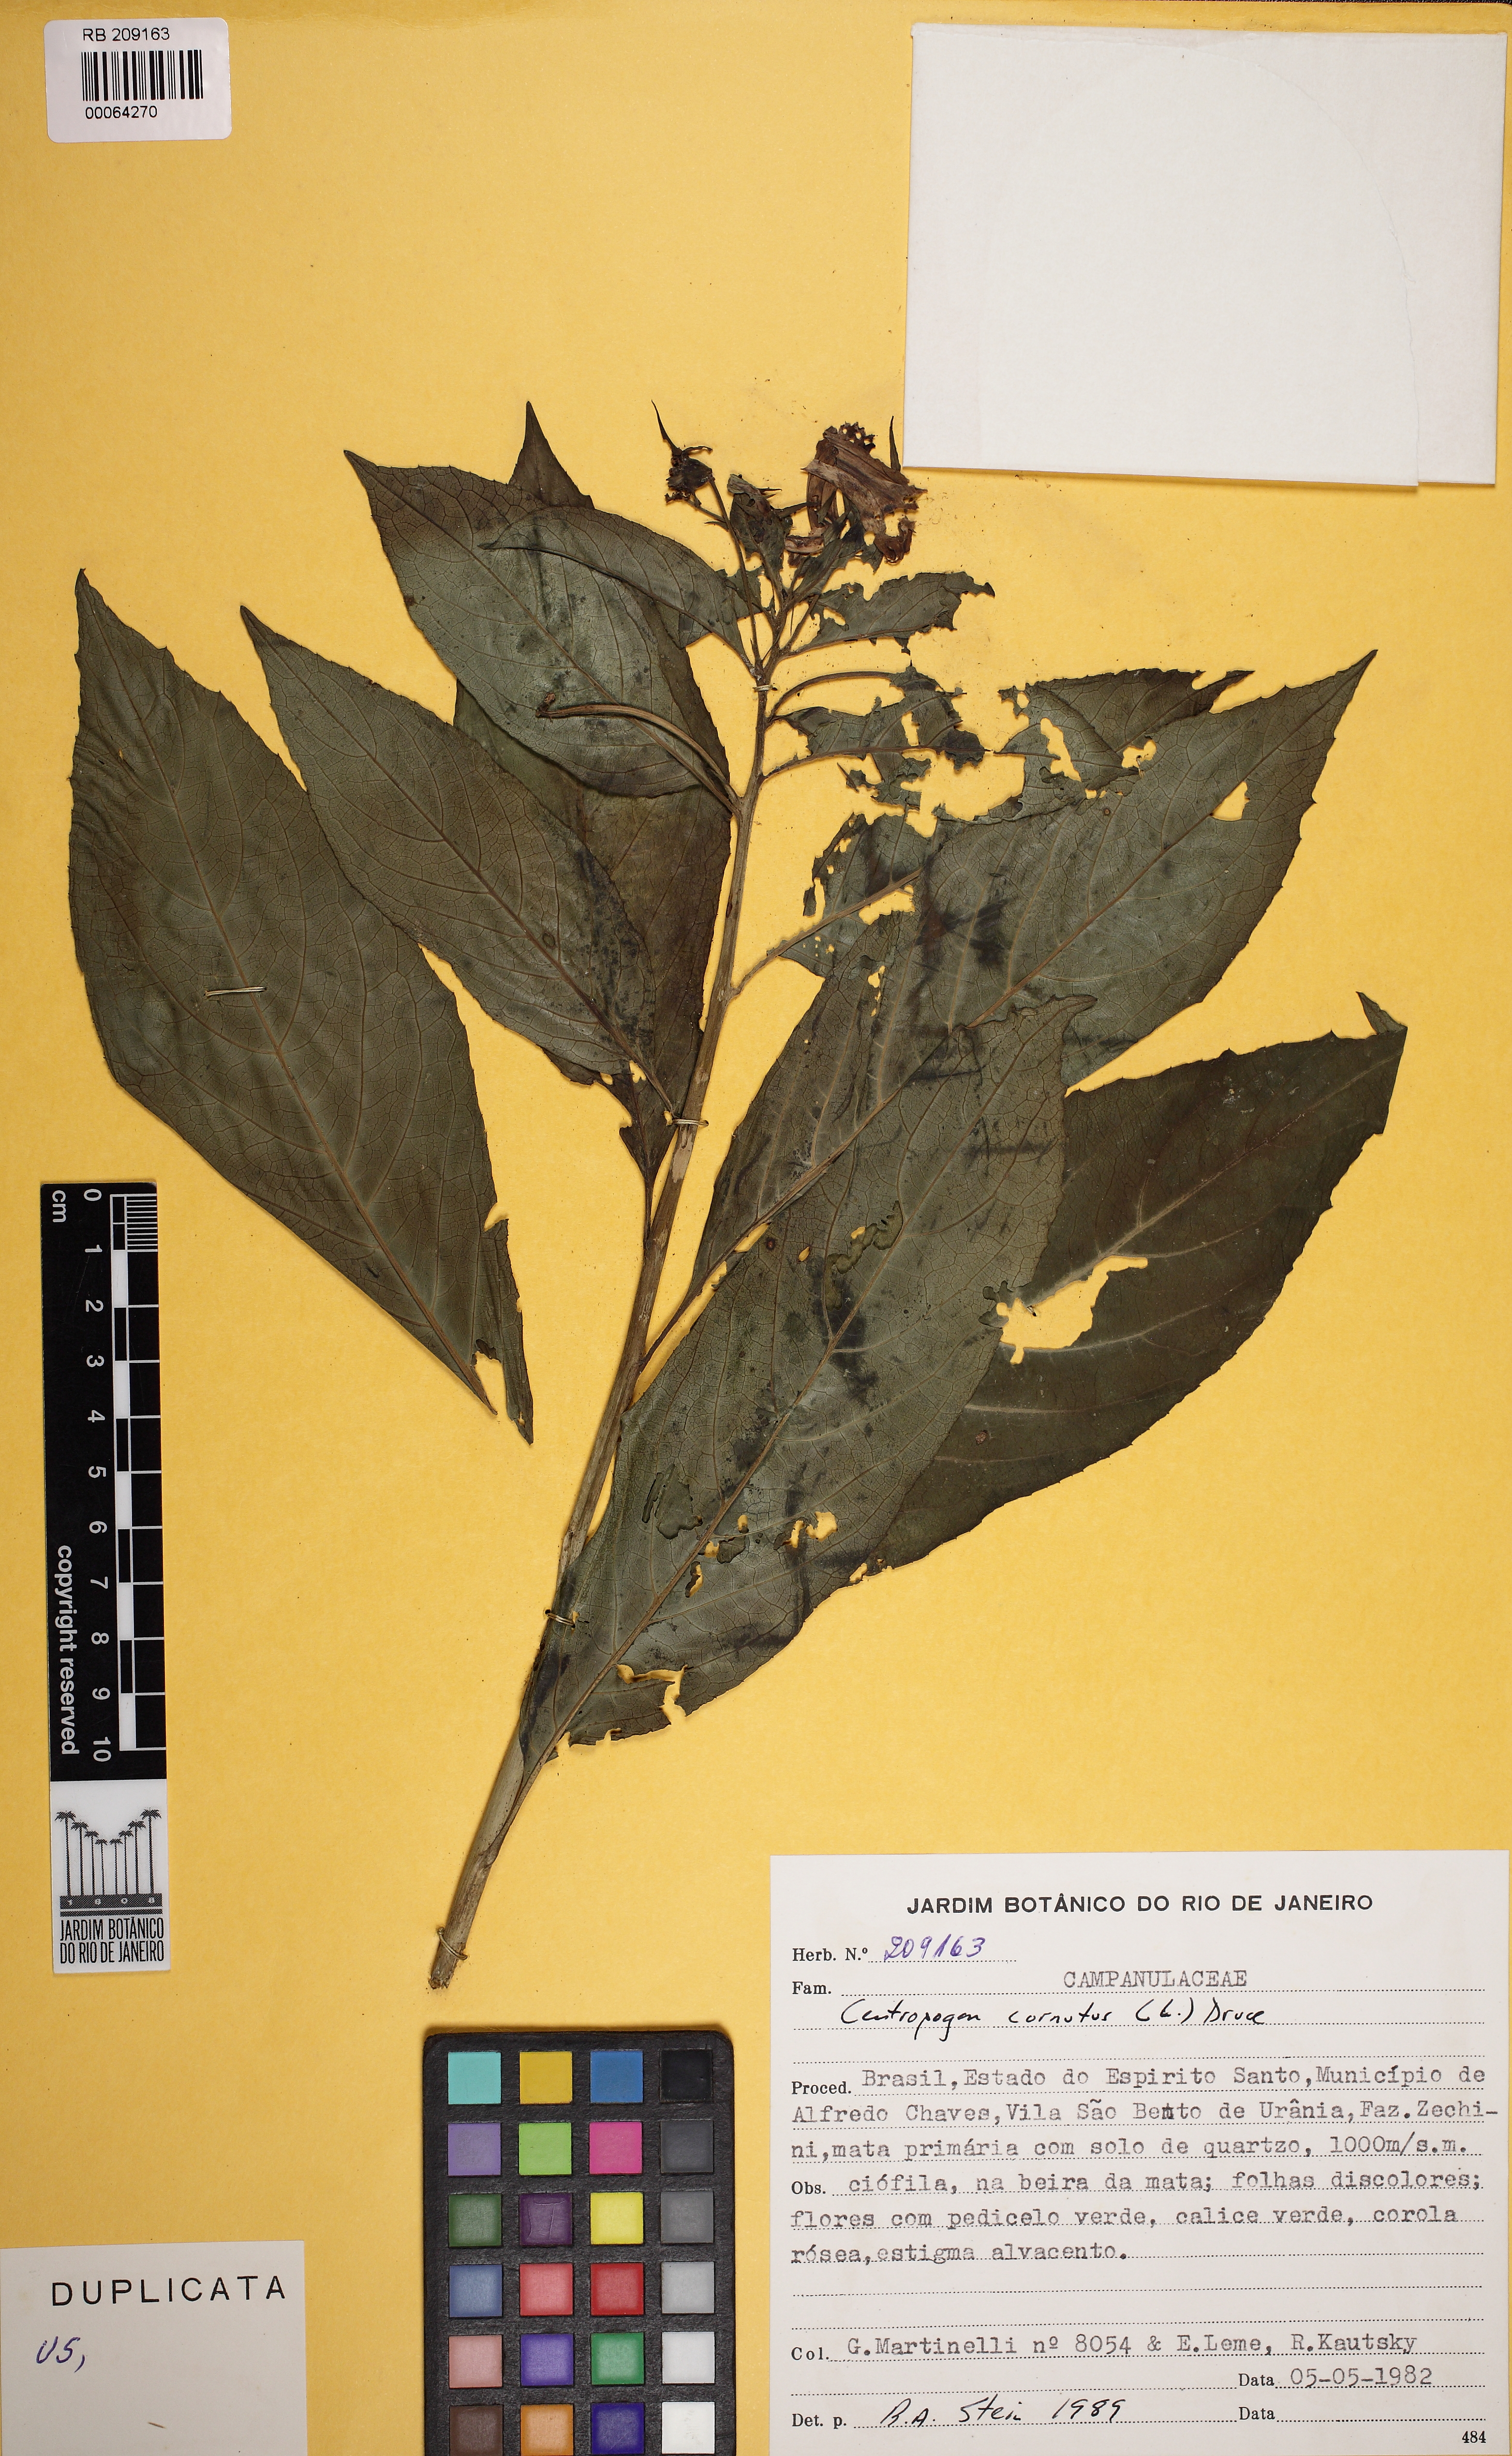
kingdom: Plantae
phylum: Tracheophyta
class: Magnoliopsida
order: Asterales
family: Campanulaceae
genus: Centropogon
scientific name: Centropogon cornutus
